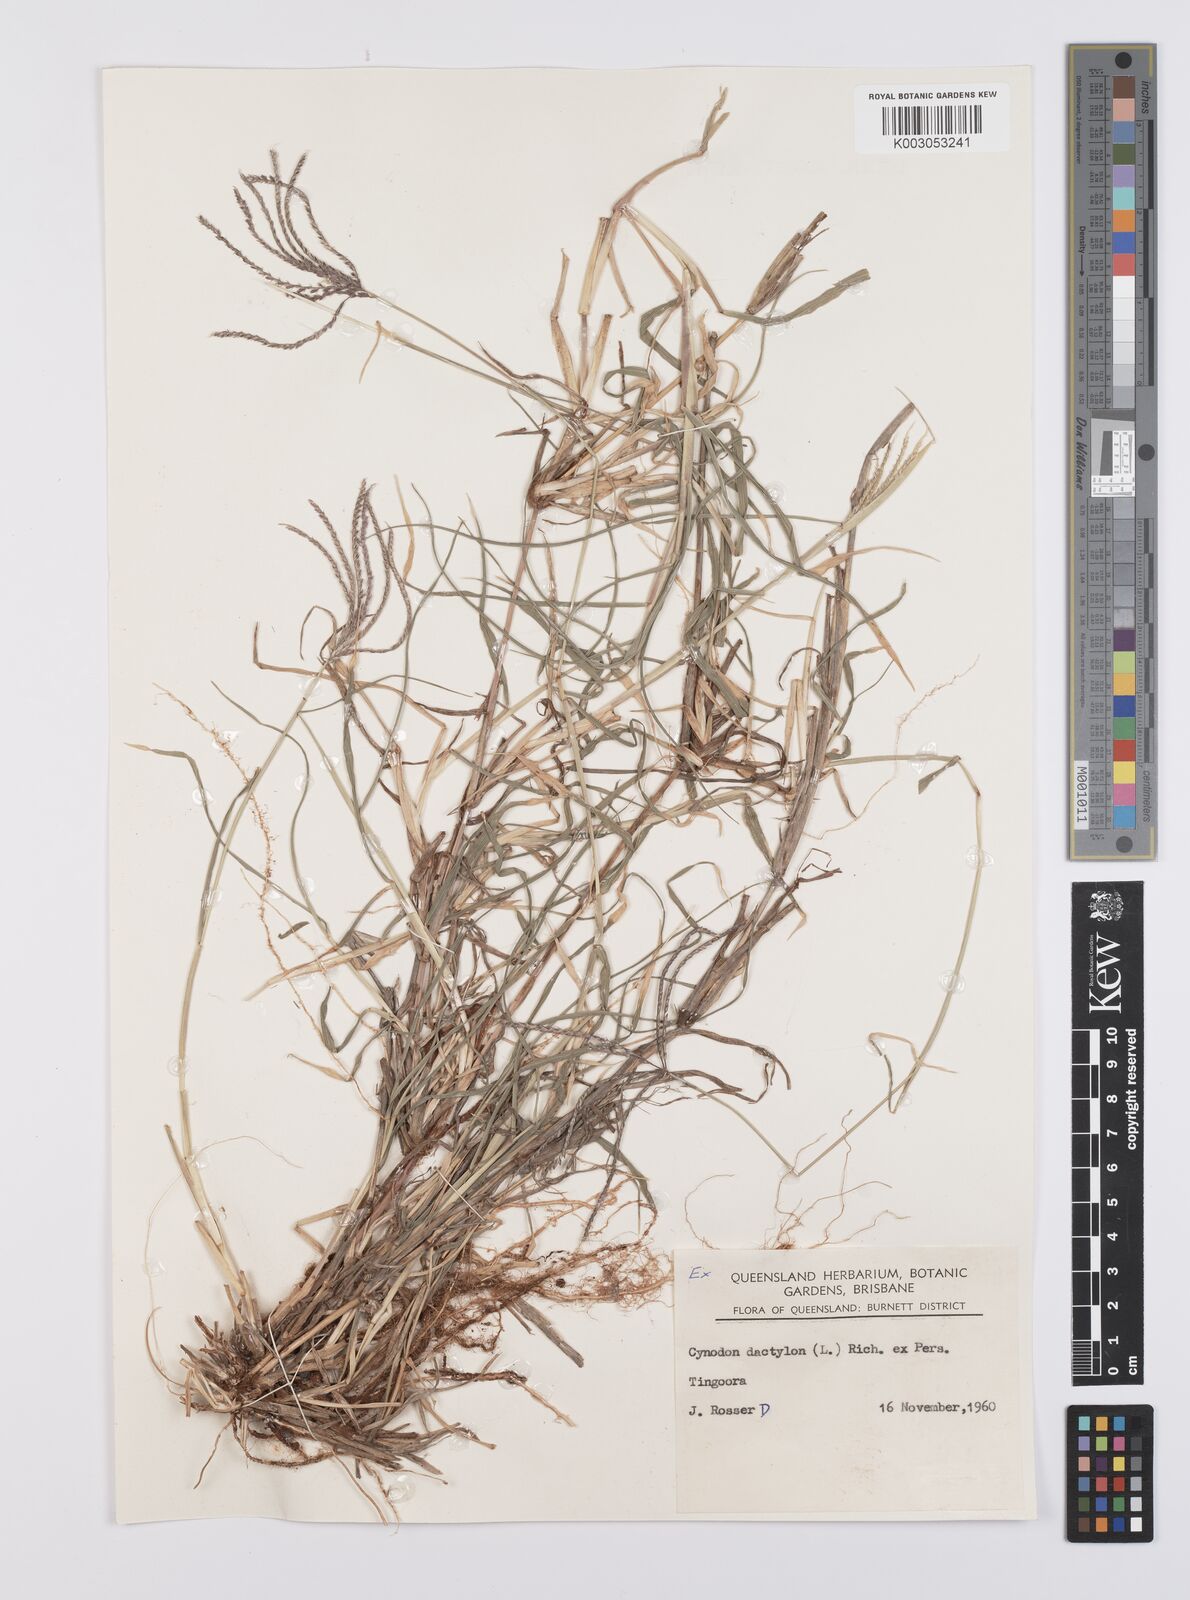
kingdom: Plantae
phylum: Tracheophyta
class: Liliopsida
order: Poales
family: Poaceae
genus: Cynodon
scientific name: Cynodon dactylon
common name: Bermuda grass
